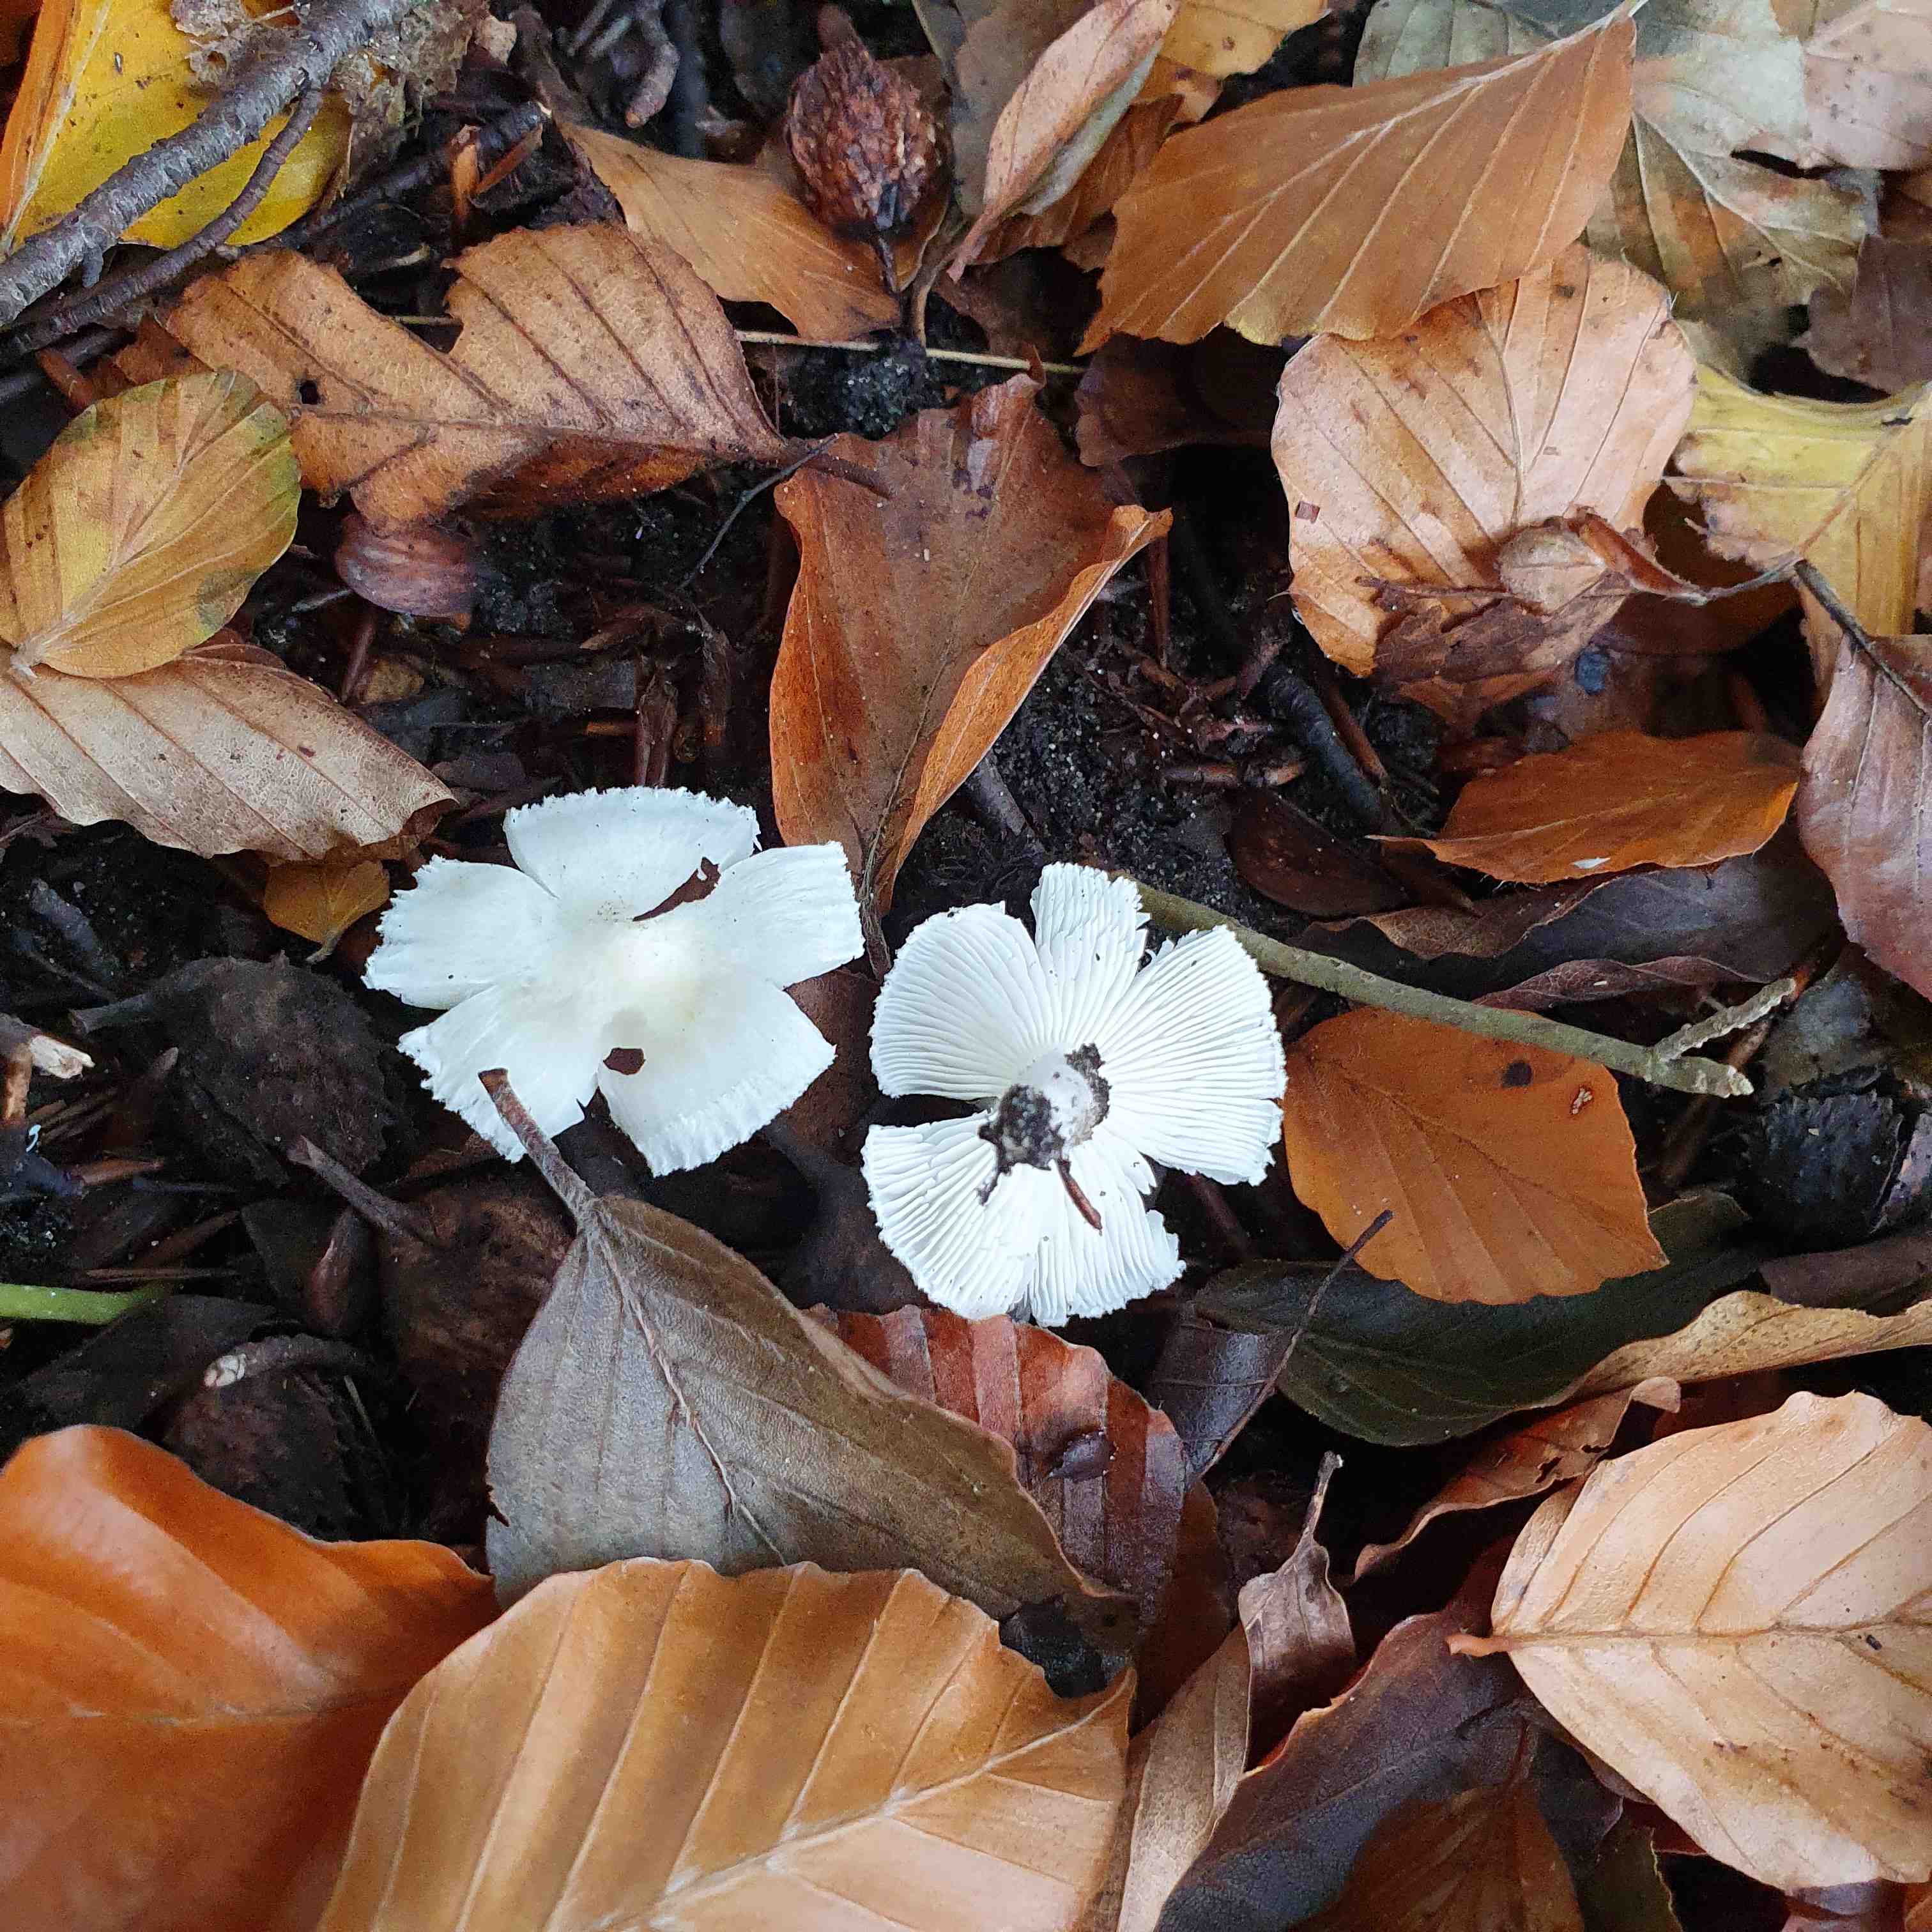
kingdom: Fungi
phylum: Basidiomycota
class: Agaricomycetes
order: Agaricales
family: Tricholomataceae
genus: Tricholoma
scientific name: Tricholoma scalpturatum
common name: gulplettet ridderhat
